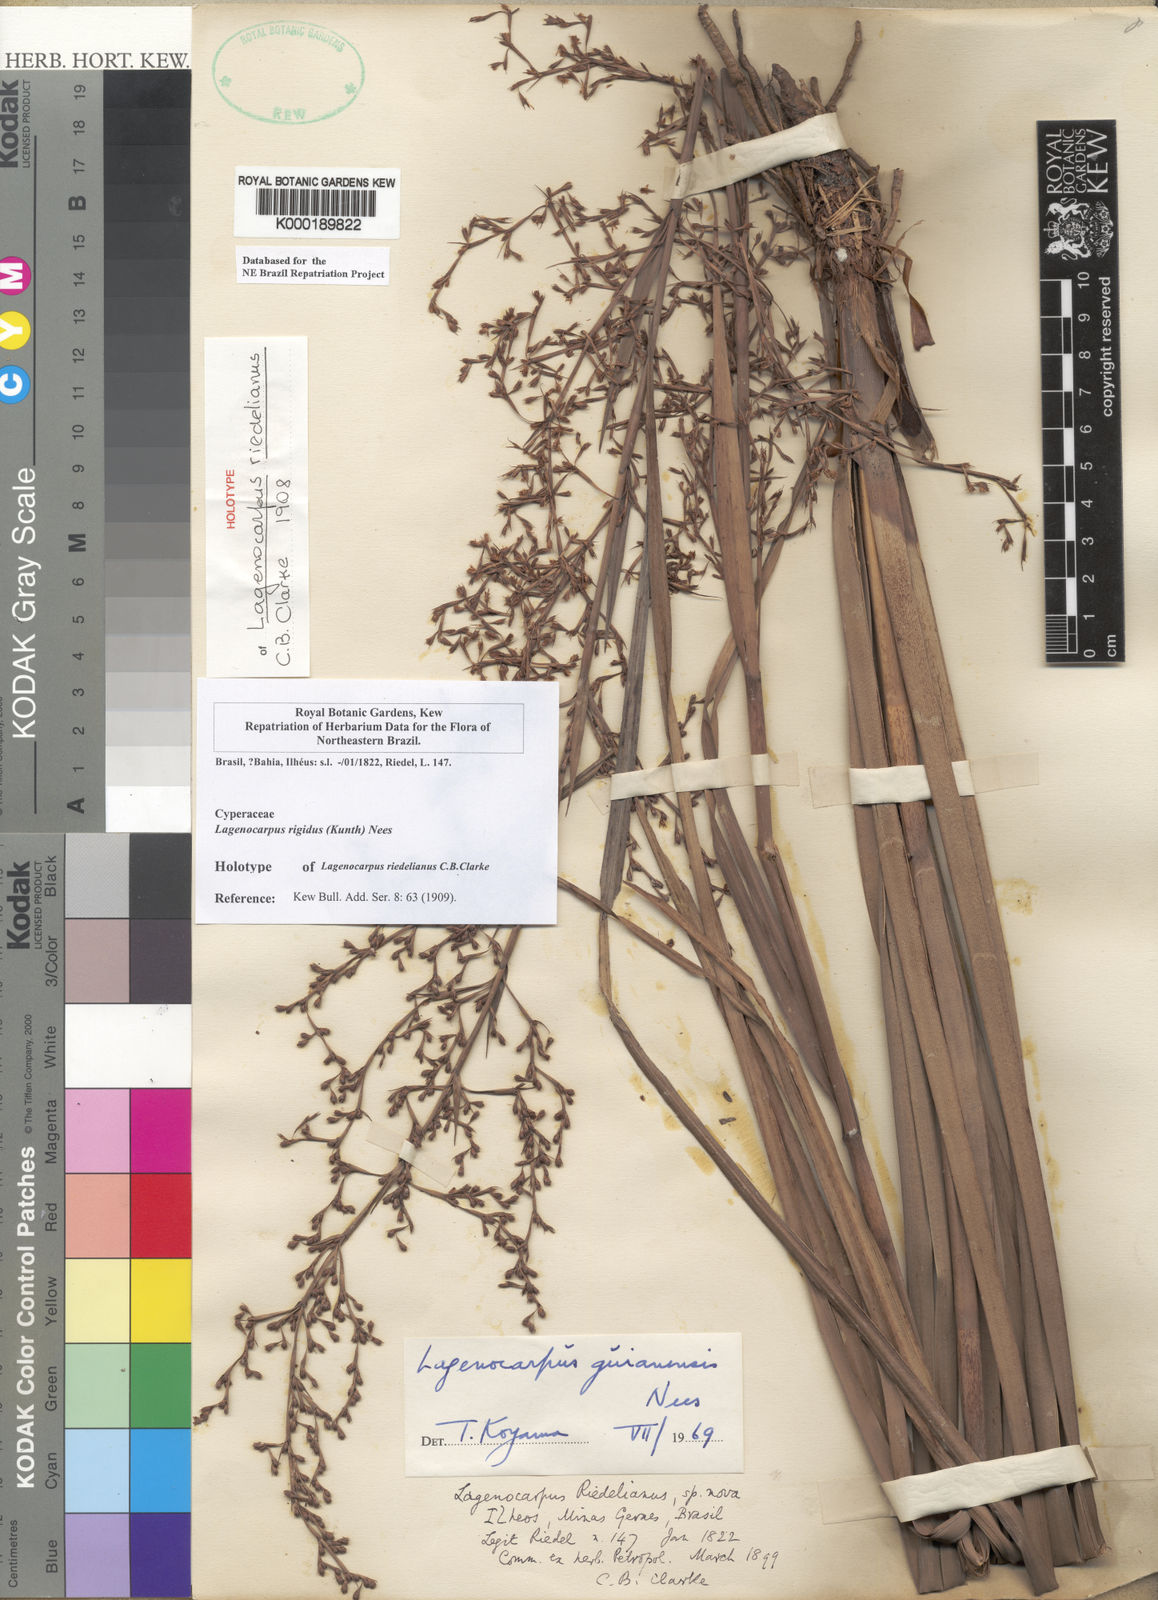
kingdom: Plantae
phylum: Tracheophyta
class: Liliopsida
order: Poales
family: Cyperaceae
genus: Lagenocarpus
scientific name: Lagenocarpus guianensis
